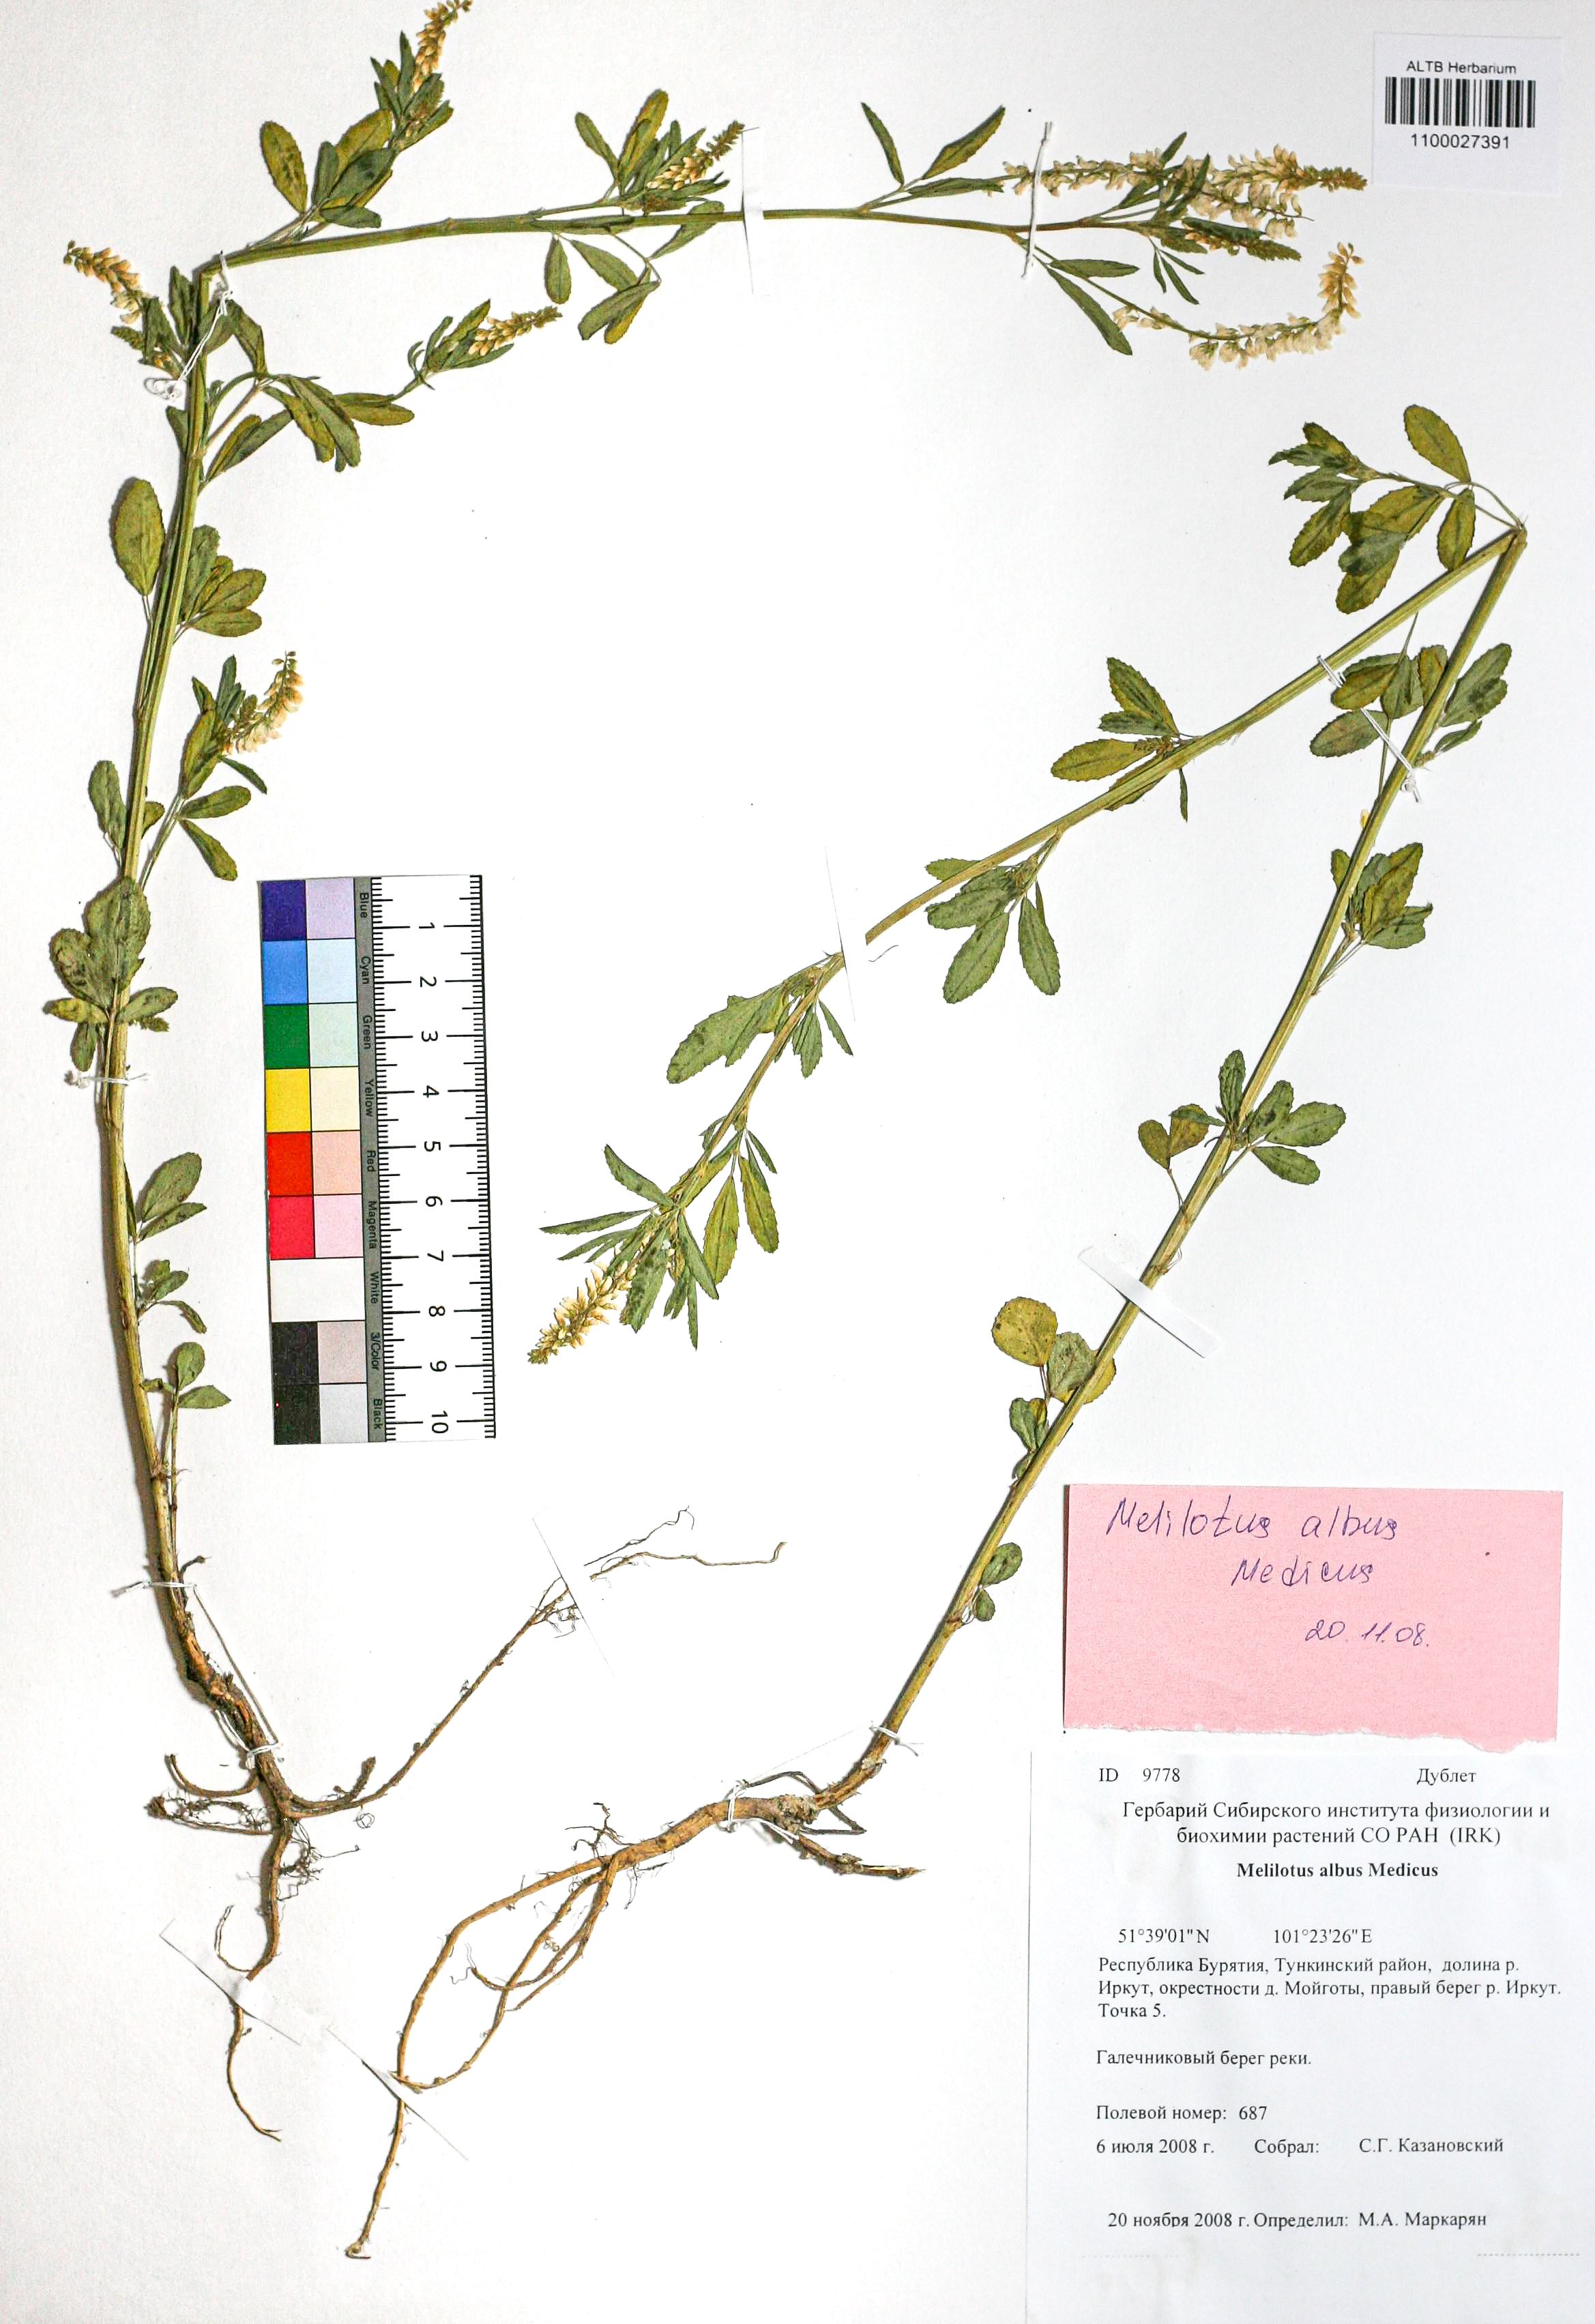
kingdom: Plantae
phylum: Tracheophyta
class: Magnoliopsida
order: Fabales
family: Fabaceae
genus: Melilotus
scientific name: Melilotus albus
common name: White melilot
